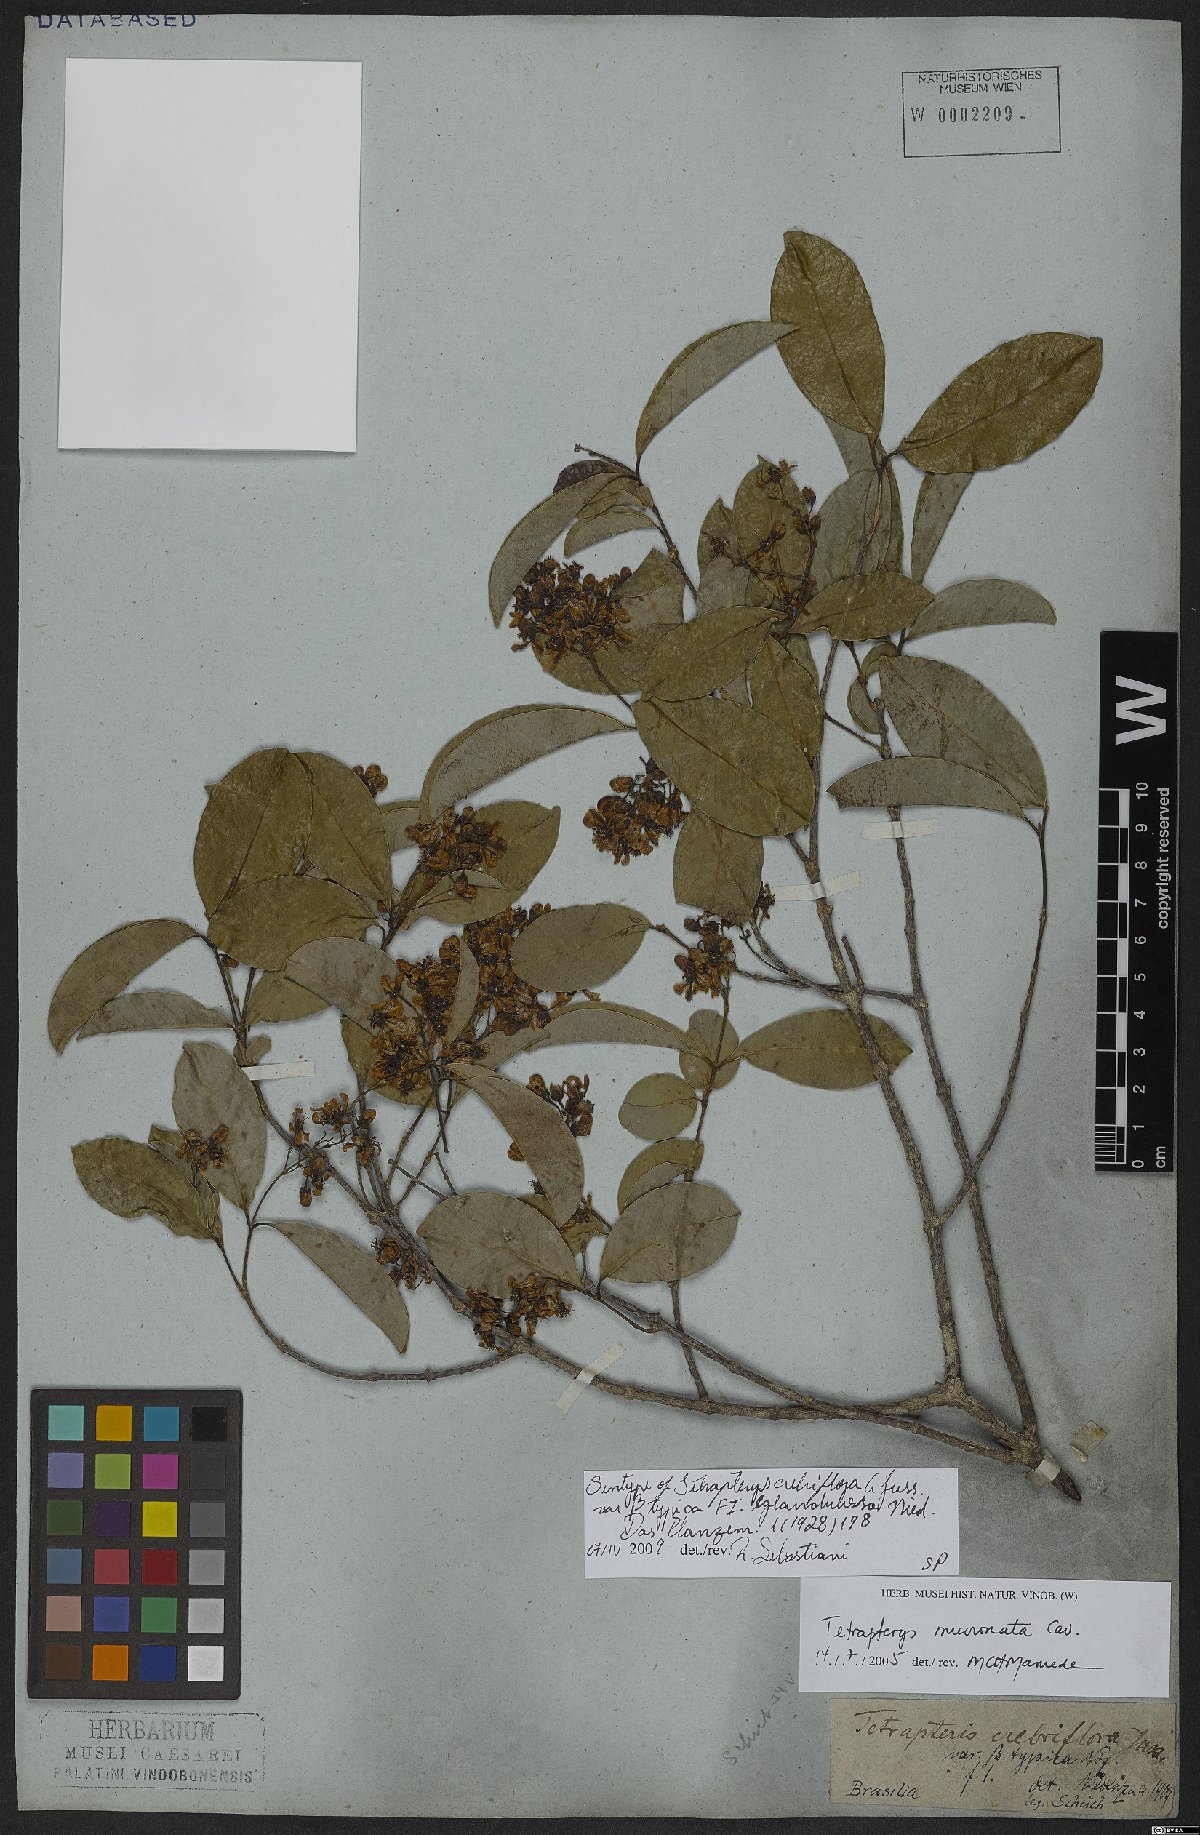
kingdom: Plantae
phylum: Tracheophyta
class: Magnoliopsida
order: Malpighiales
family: Malpighiaceae
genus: Tetrapterys
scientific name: Tetrapterys mucronata
